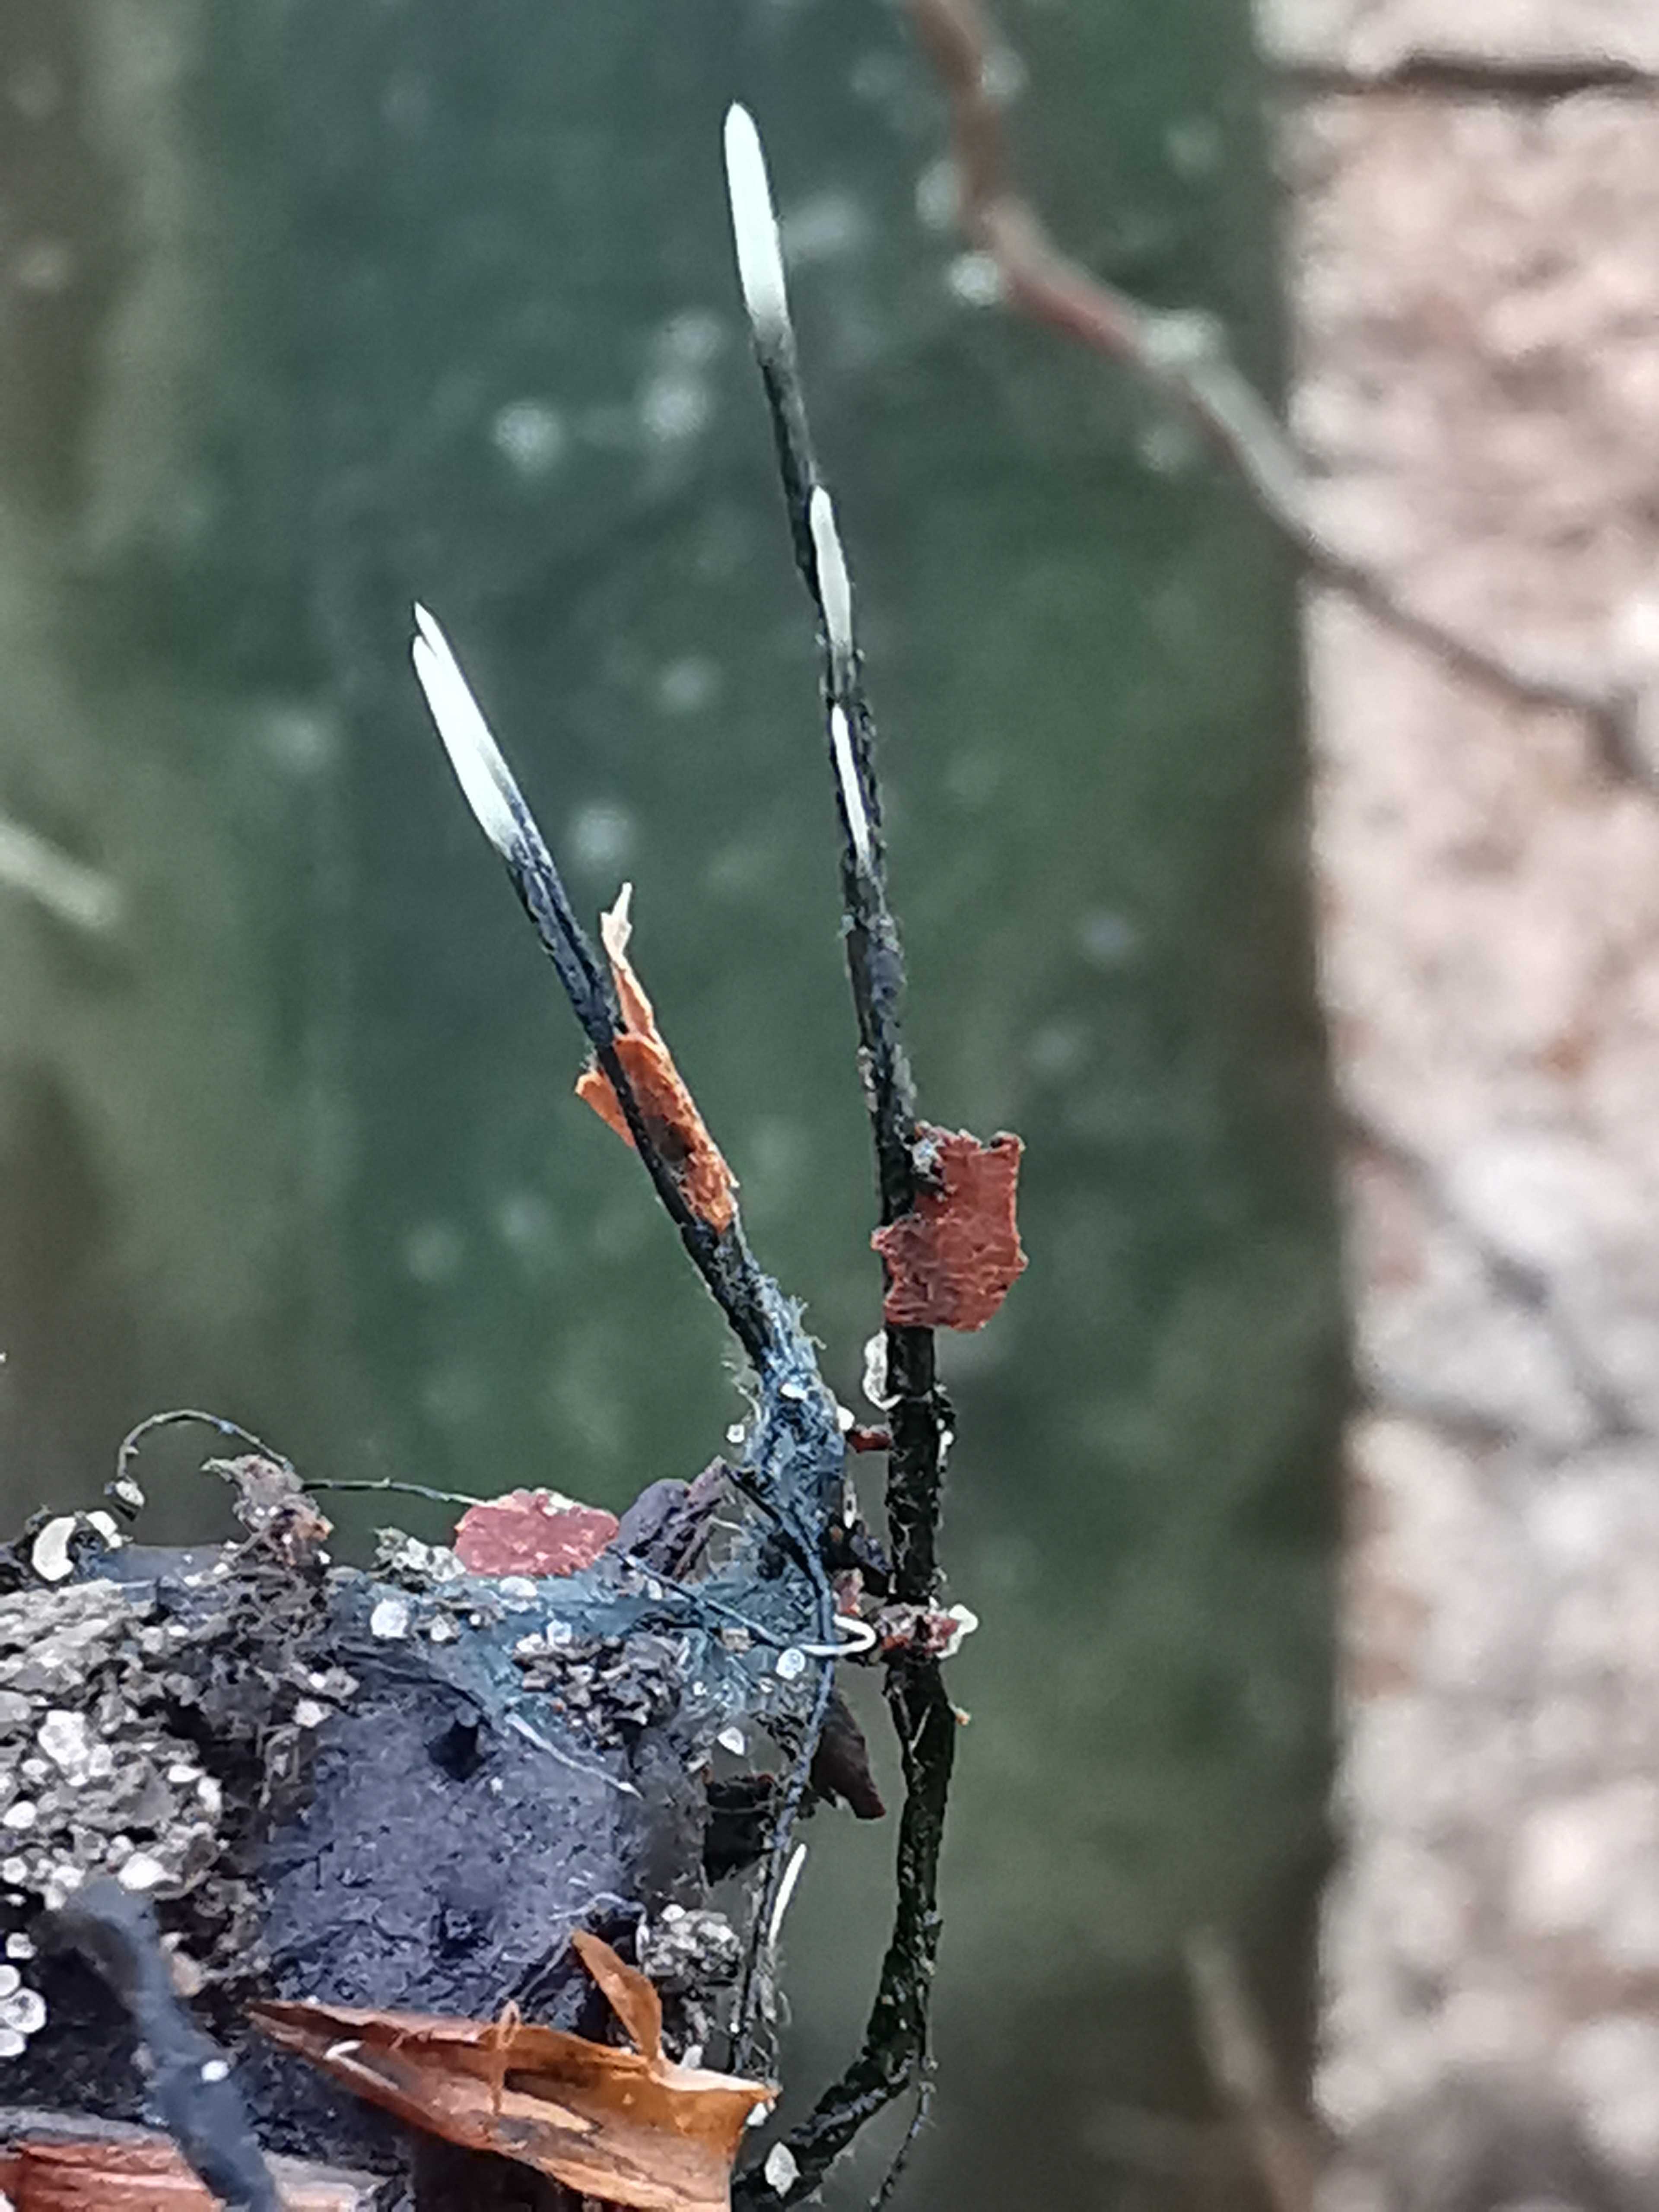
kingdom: Fungi
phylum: Ascomycota
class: Sordariomycetes
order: Xylariales
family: Xylariaceae
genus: Xylaria
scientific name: Xylaria carpophila
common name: bogskål-stødsvamp
